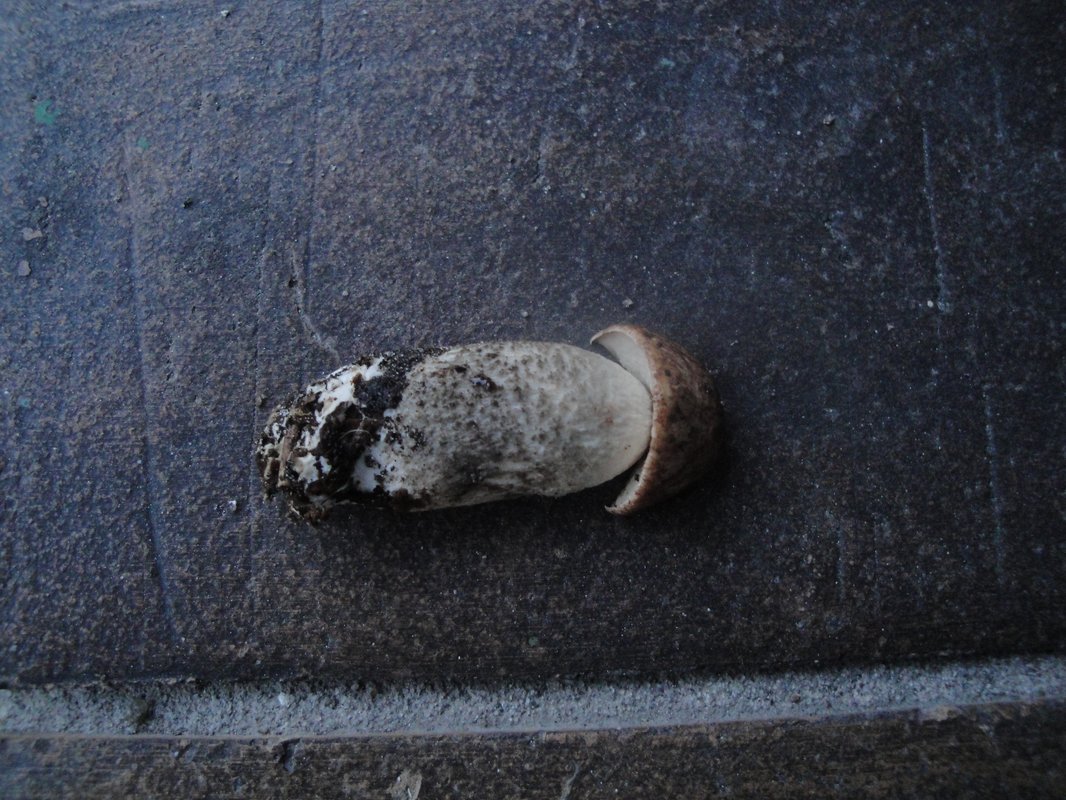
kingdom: Fungi
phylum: Basidiomycota
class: Agaricomycetes
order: Boletales
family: Boletaceae
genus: Leccinum
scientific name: Leccinum scabrum
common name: brun skælrørhat
